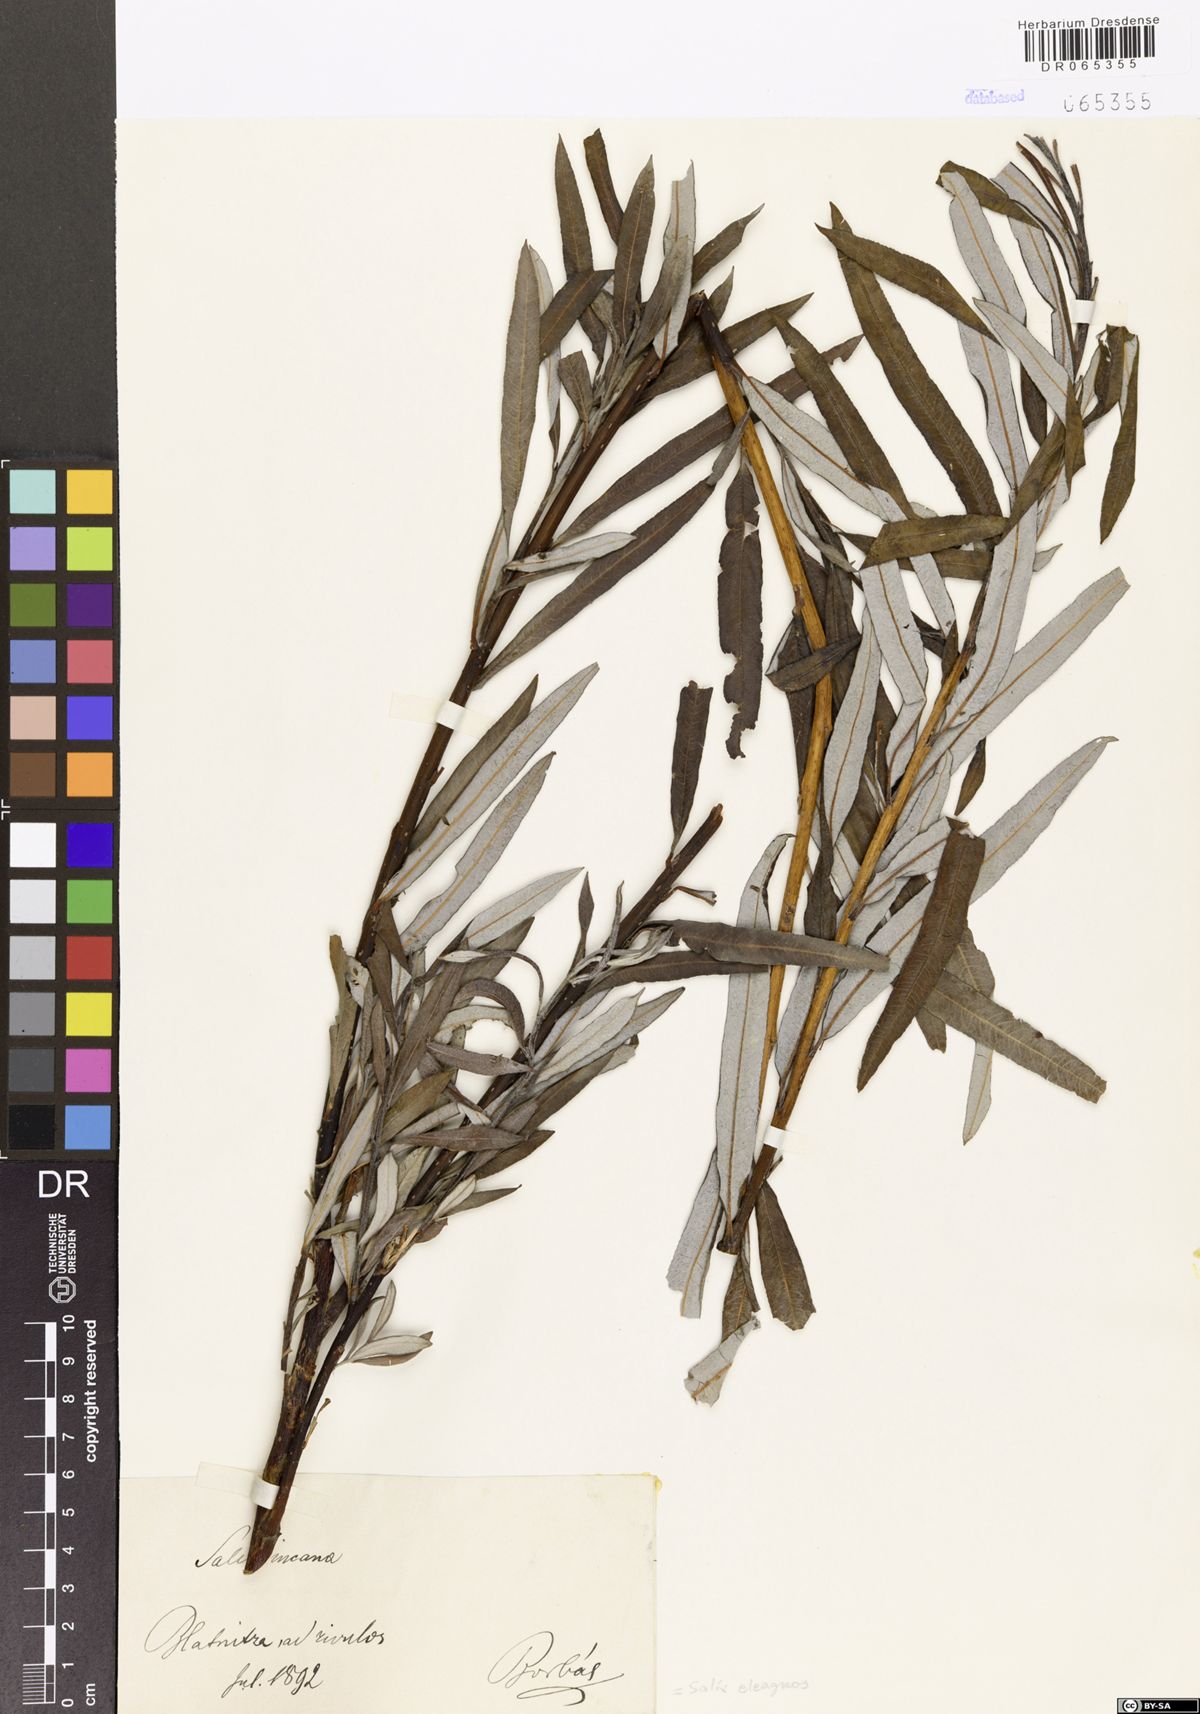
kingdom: Plantae
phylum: Tracheophyta
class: Magnoliopsida
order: Malpighiales
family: Salicaceae
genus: Salix
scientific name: Salix eleagnos
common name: Elaeagnus willow
